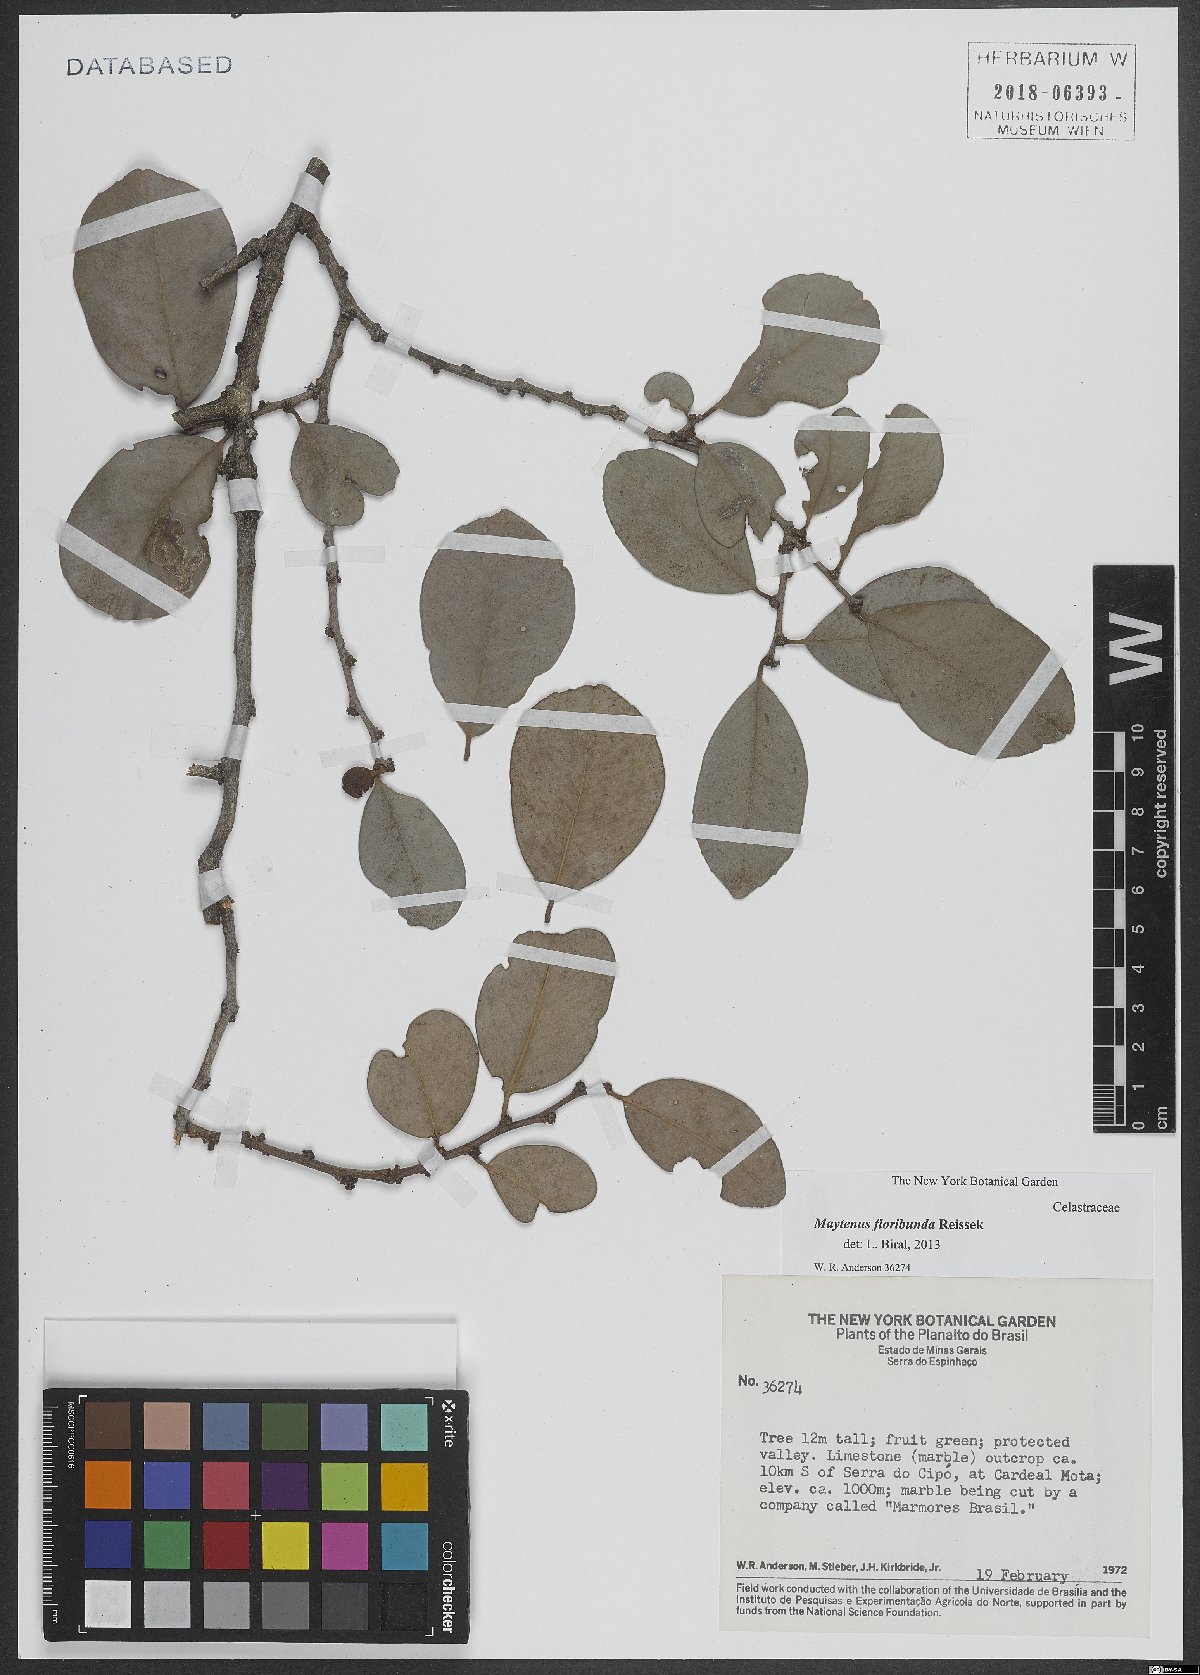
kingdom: Plantae
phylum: Tracheophyta
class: Magnoliopsida
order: Celastrales
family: Celastraceae
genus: Monteverdia
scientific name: Monteverdia floribunda
